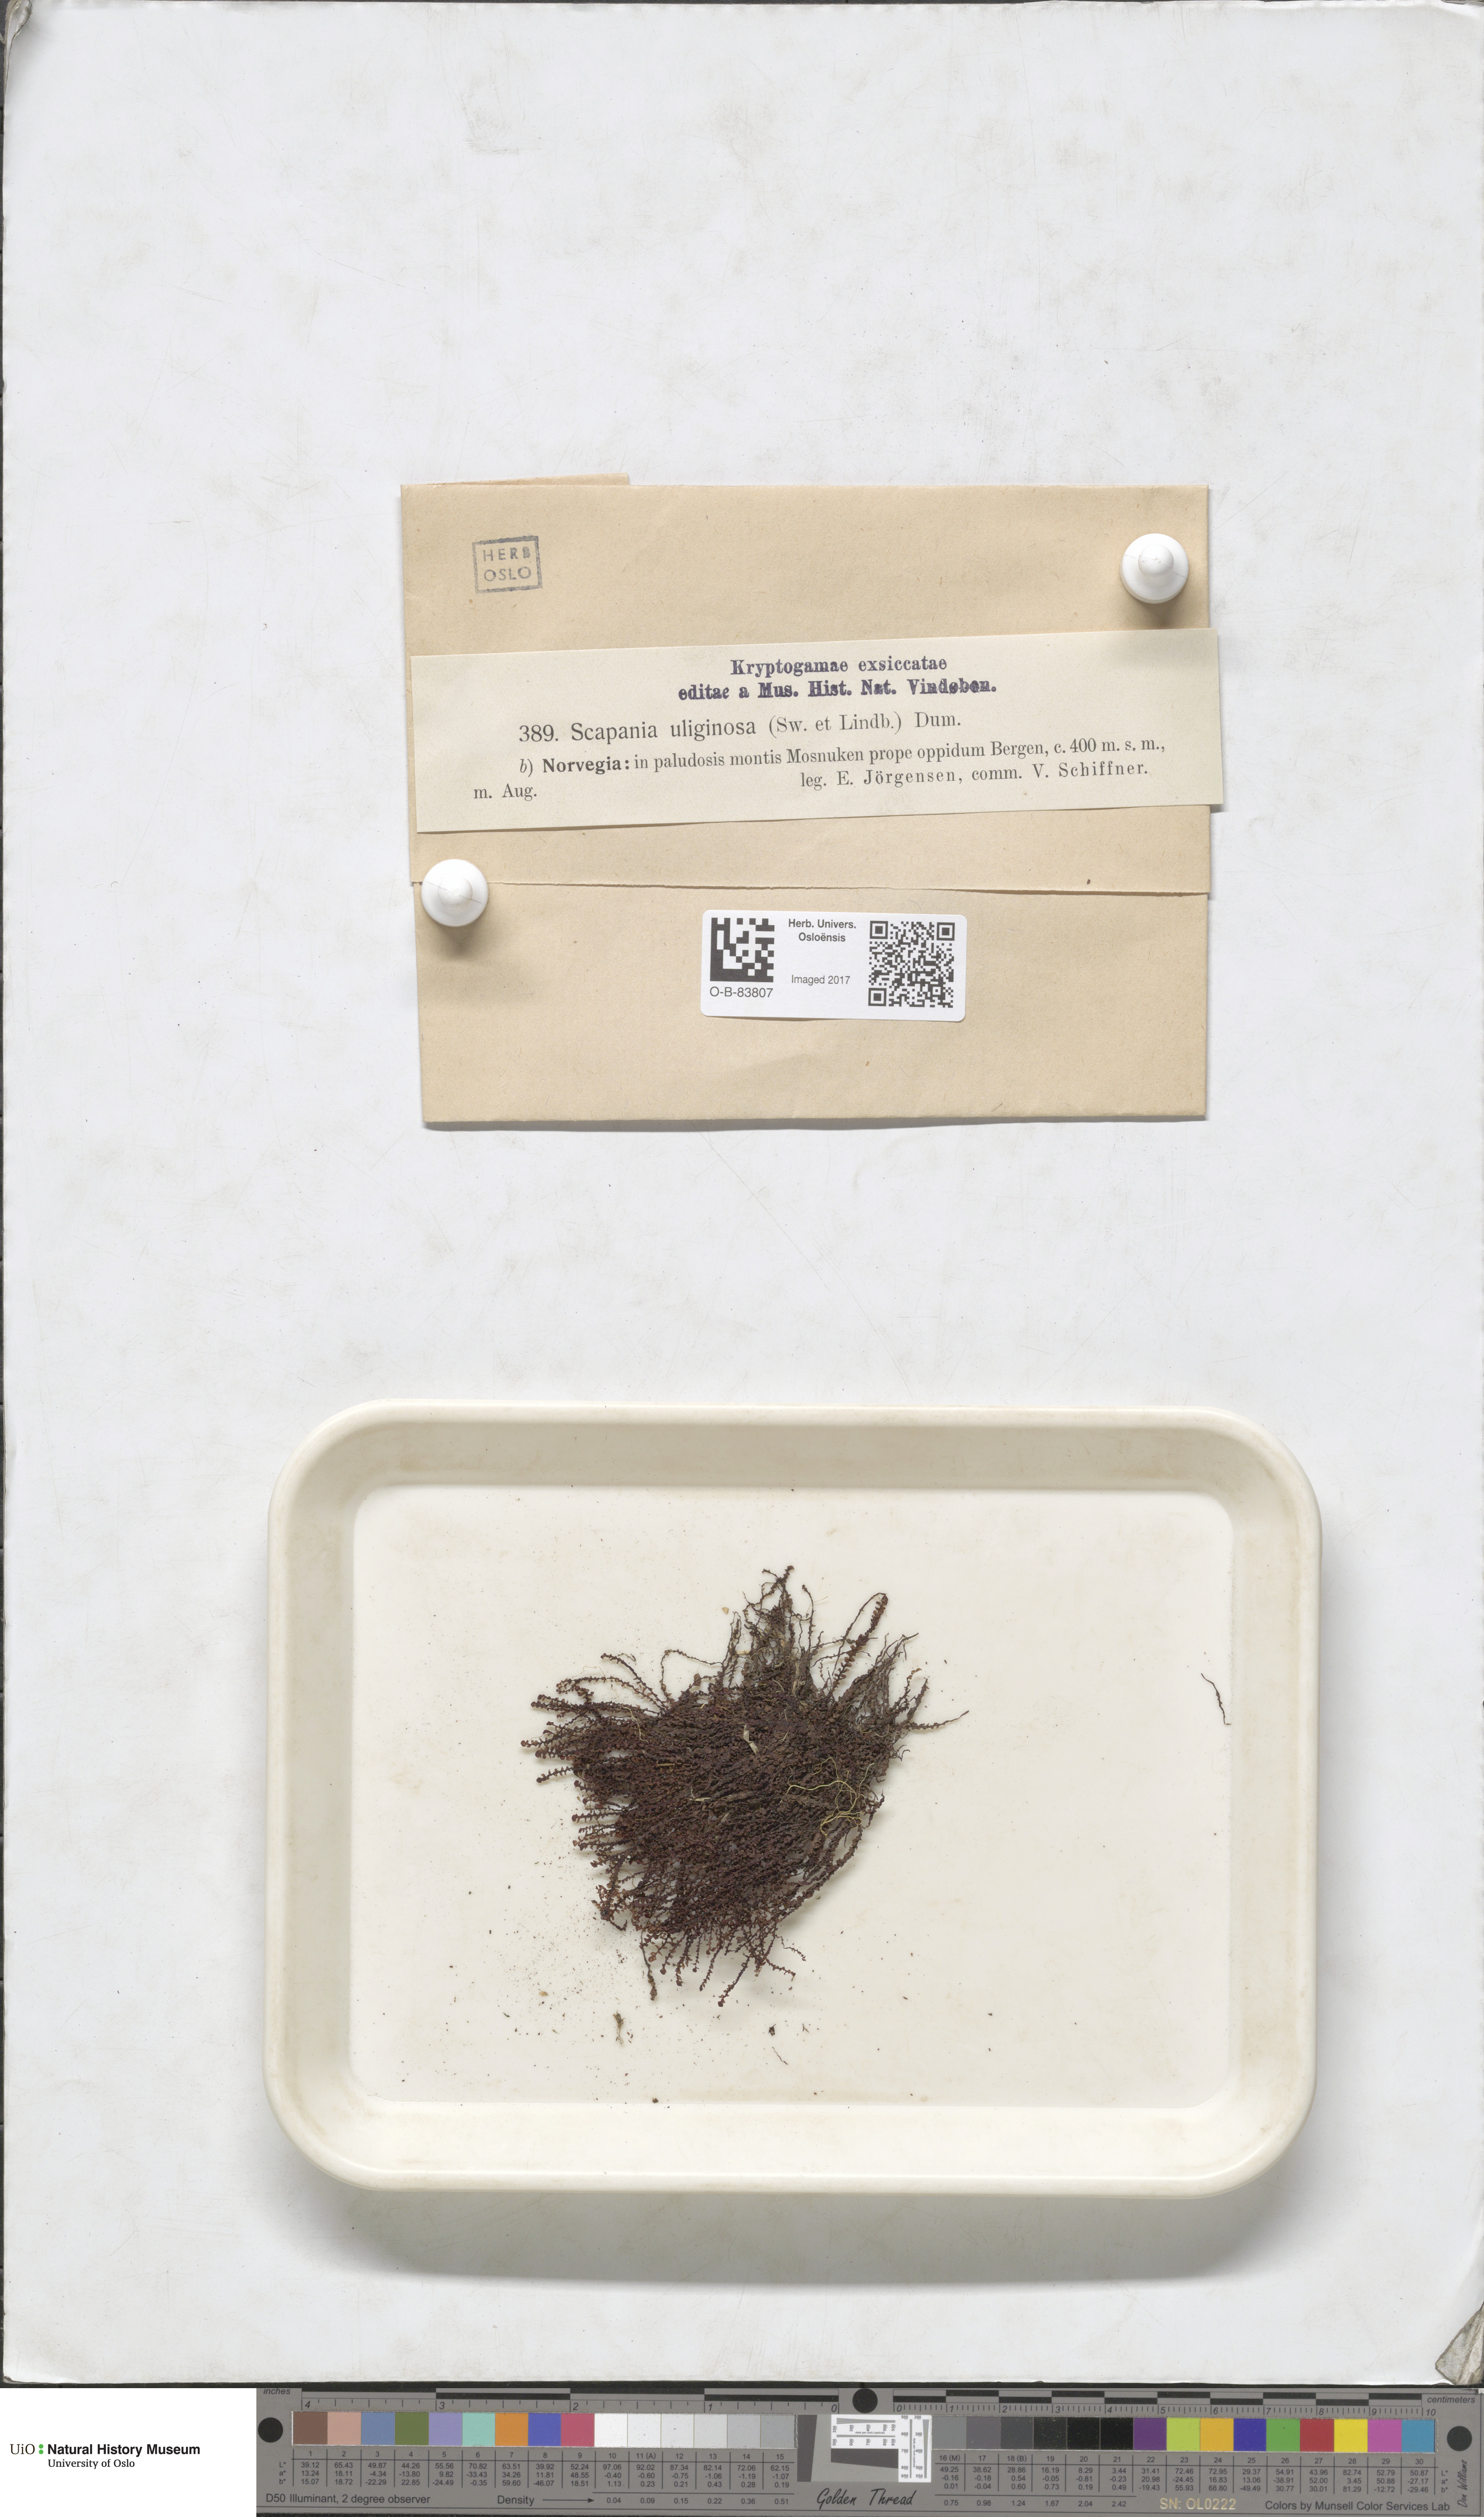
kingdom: Plantae
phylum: Marchantiophyta
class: Jungermanniopsida
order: Jungermanniales
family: Scapaniaceae
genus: Scapania
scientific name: Scapania uliginosa
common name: Marsh earwort
